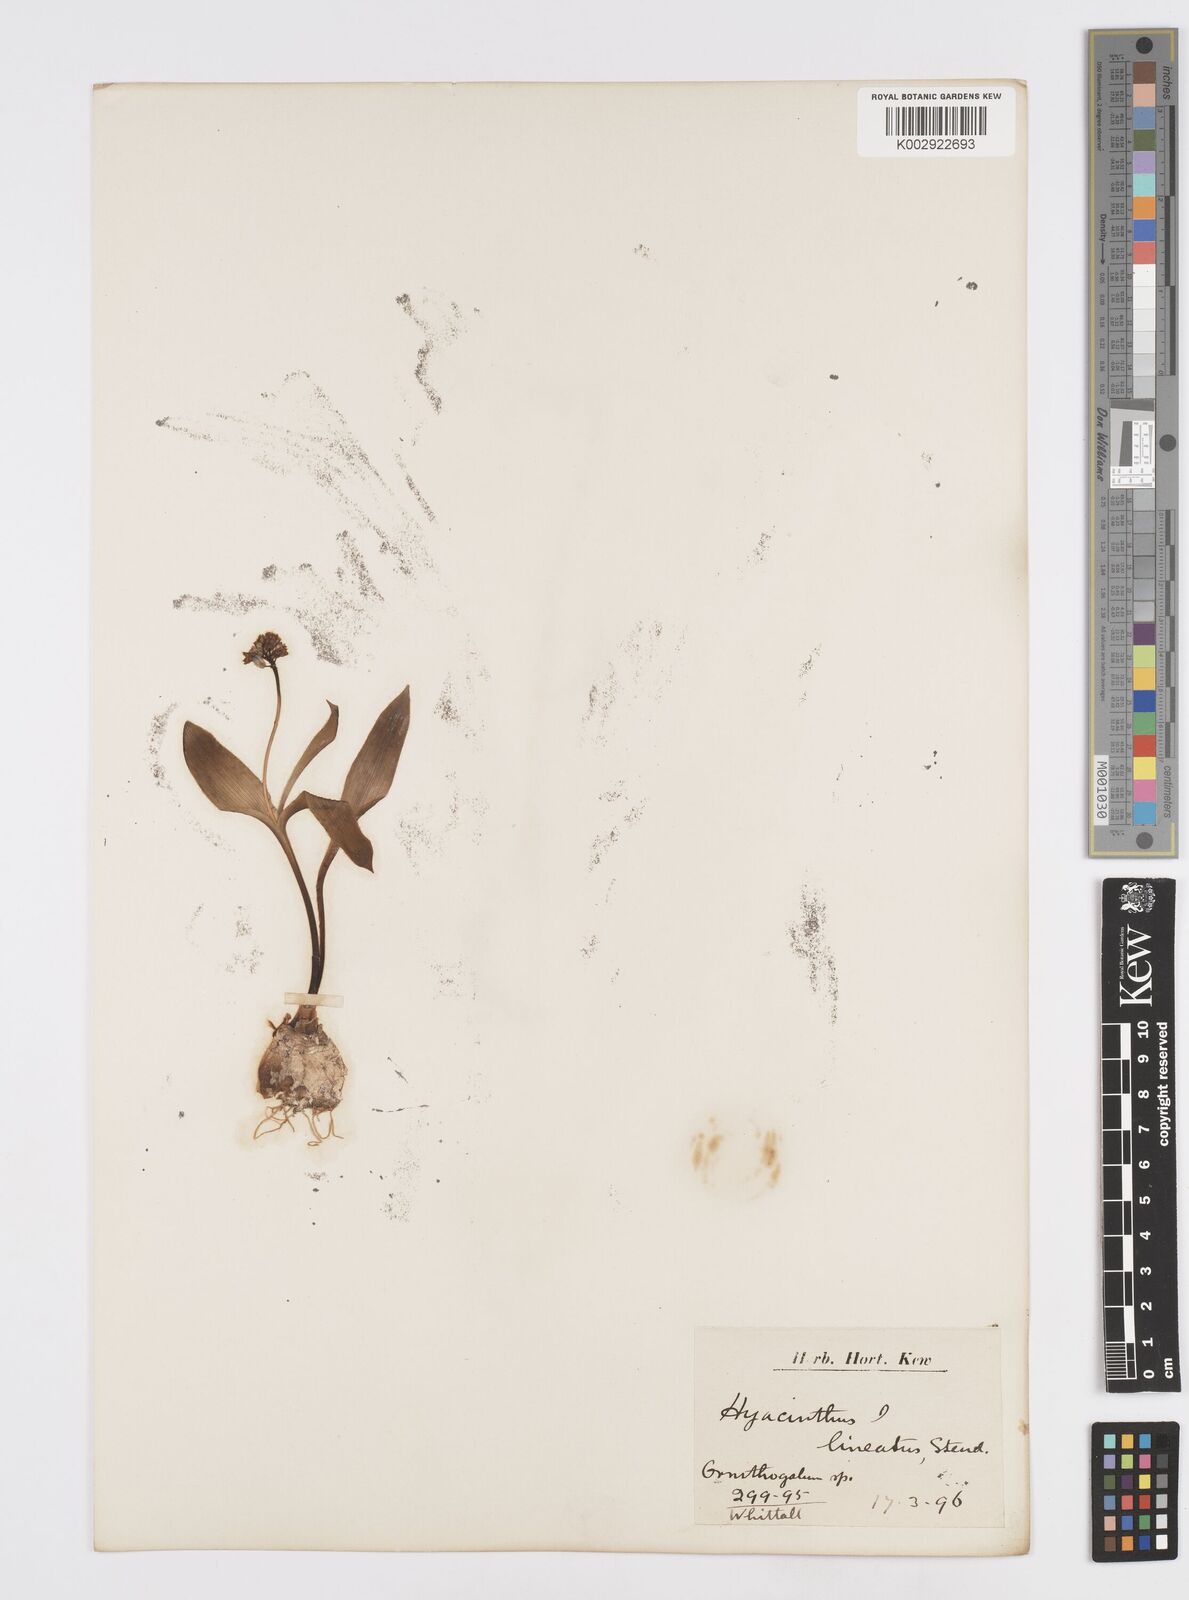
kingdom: Plantae
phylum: Tracheophyta
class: Liliopsida
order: Asparagales
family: Asparagaceae
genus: Hyacinthella
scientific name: Hyacinthella lineata
